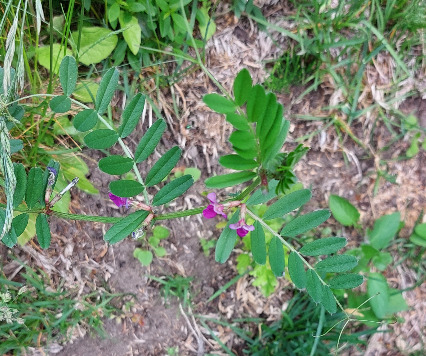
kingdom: Plantae
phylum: Tracheophyta
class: Magnoliopsida
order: Fabales
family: Fabaceae
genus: Vicia
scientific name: Vicia sativa
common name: Ager-vikke
